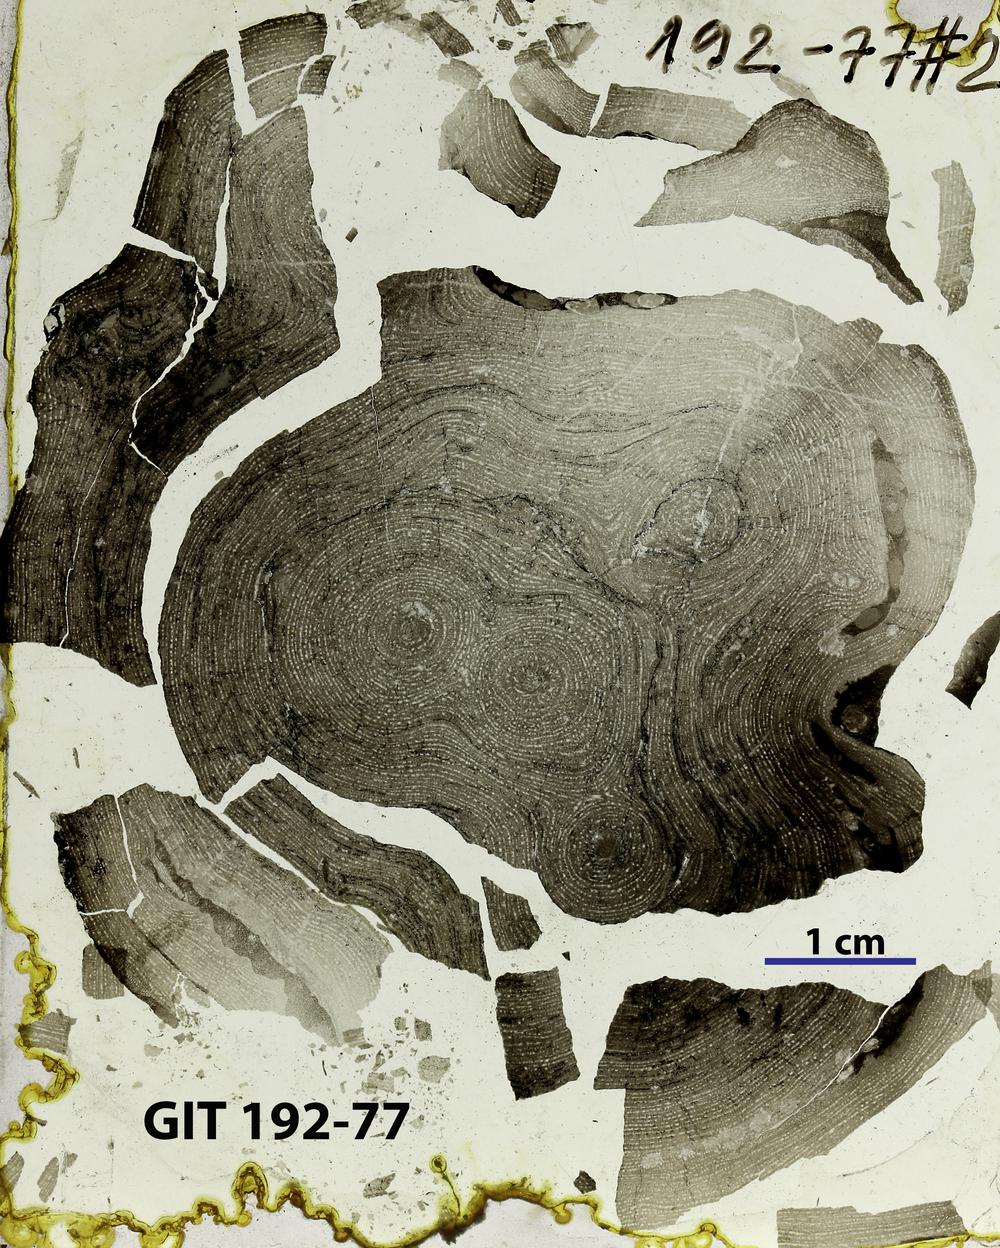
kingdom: Animalia
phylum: Porifera
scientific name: Porifera
